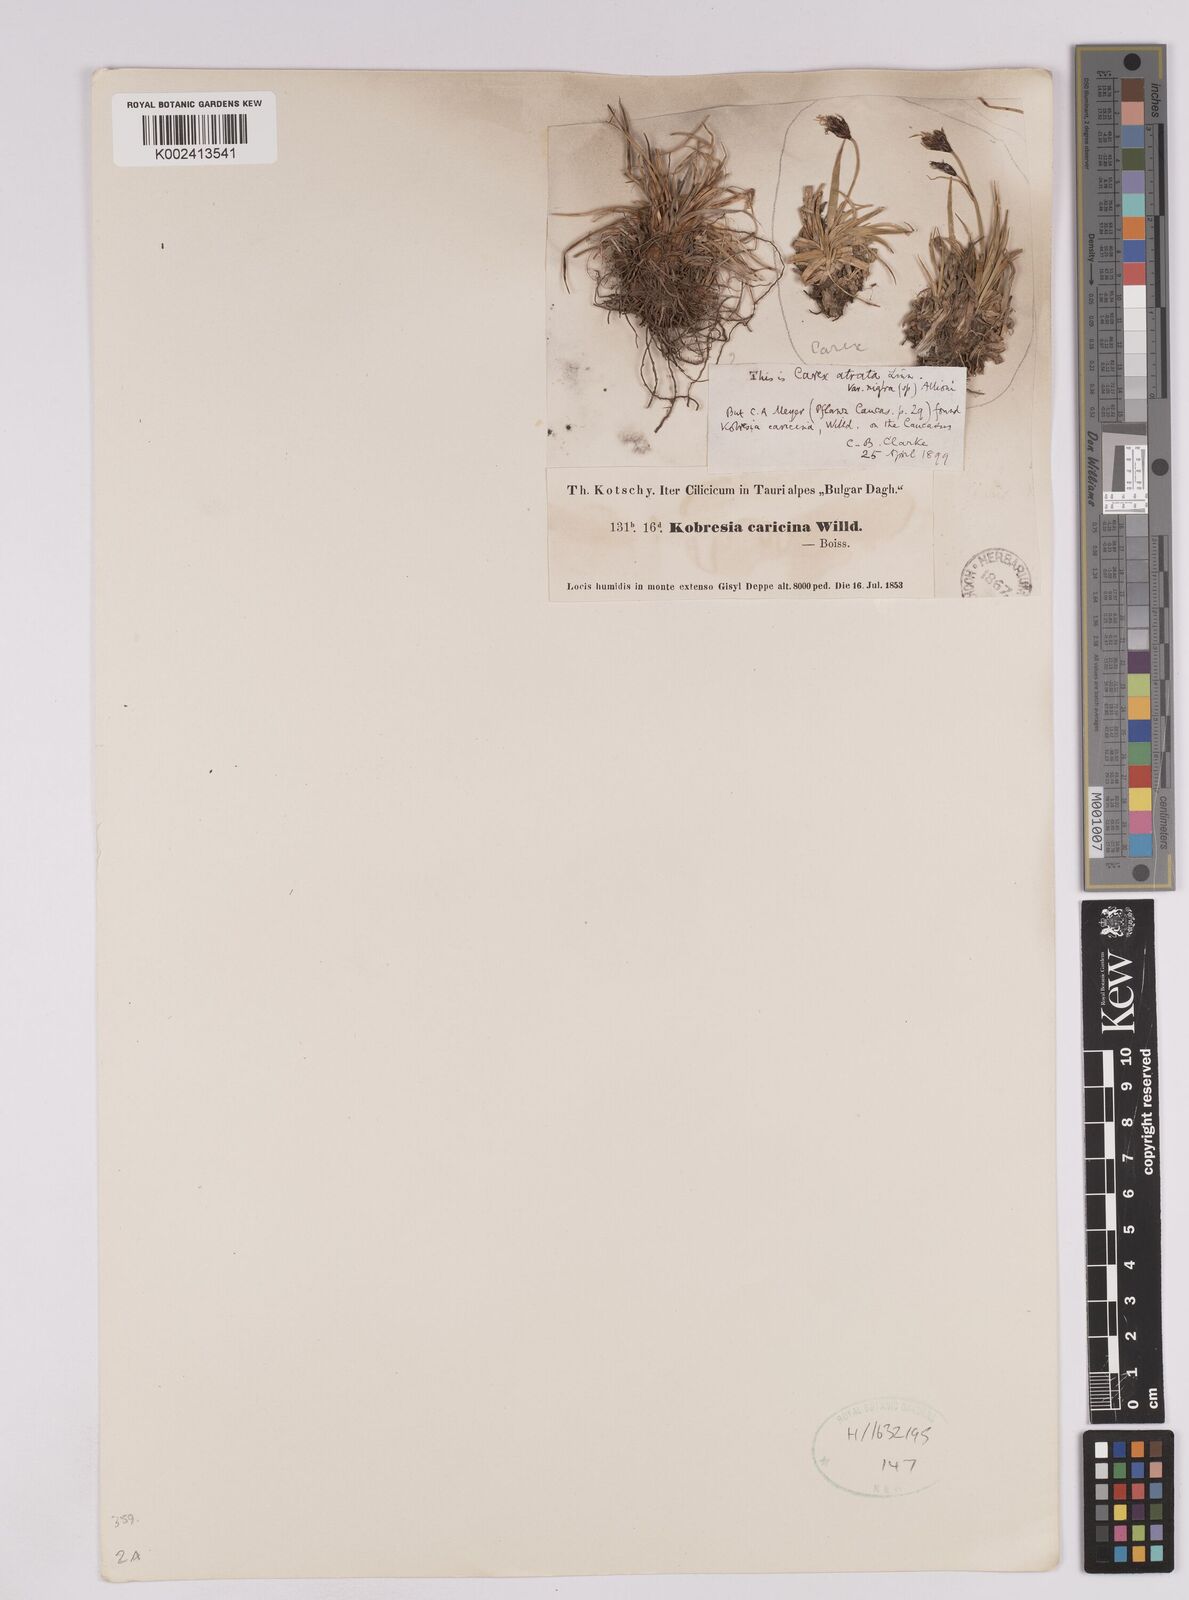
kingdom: Plantae
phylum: Tracheophyta
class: Liliopsida
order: Poales
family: Cyperaceae
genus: Carex
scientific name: Carex simpliciuscula
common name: Simple bog sedge
